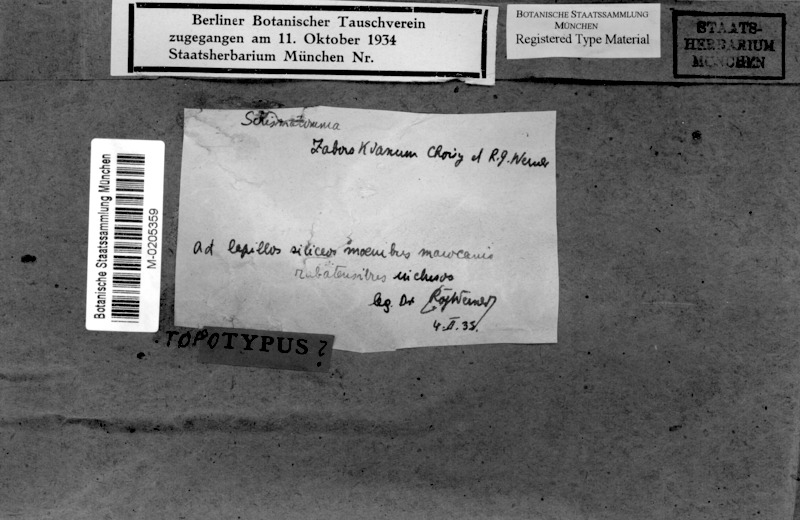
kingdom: Fungi
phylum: Ascomycota
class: Arthoniomycetes
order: Arthoniales
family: Roccellaceae
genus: Enterographa
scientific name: Enterographa pitardii
